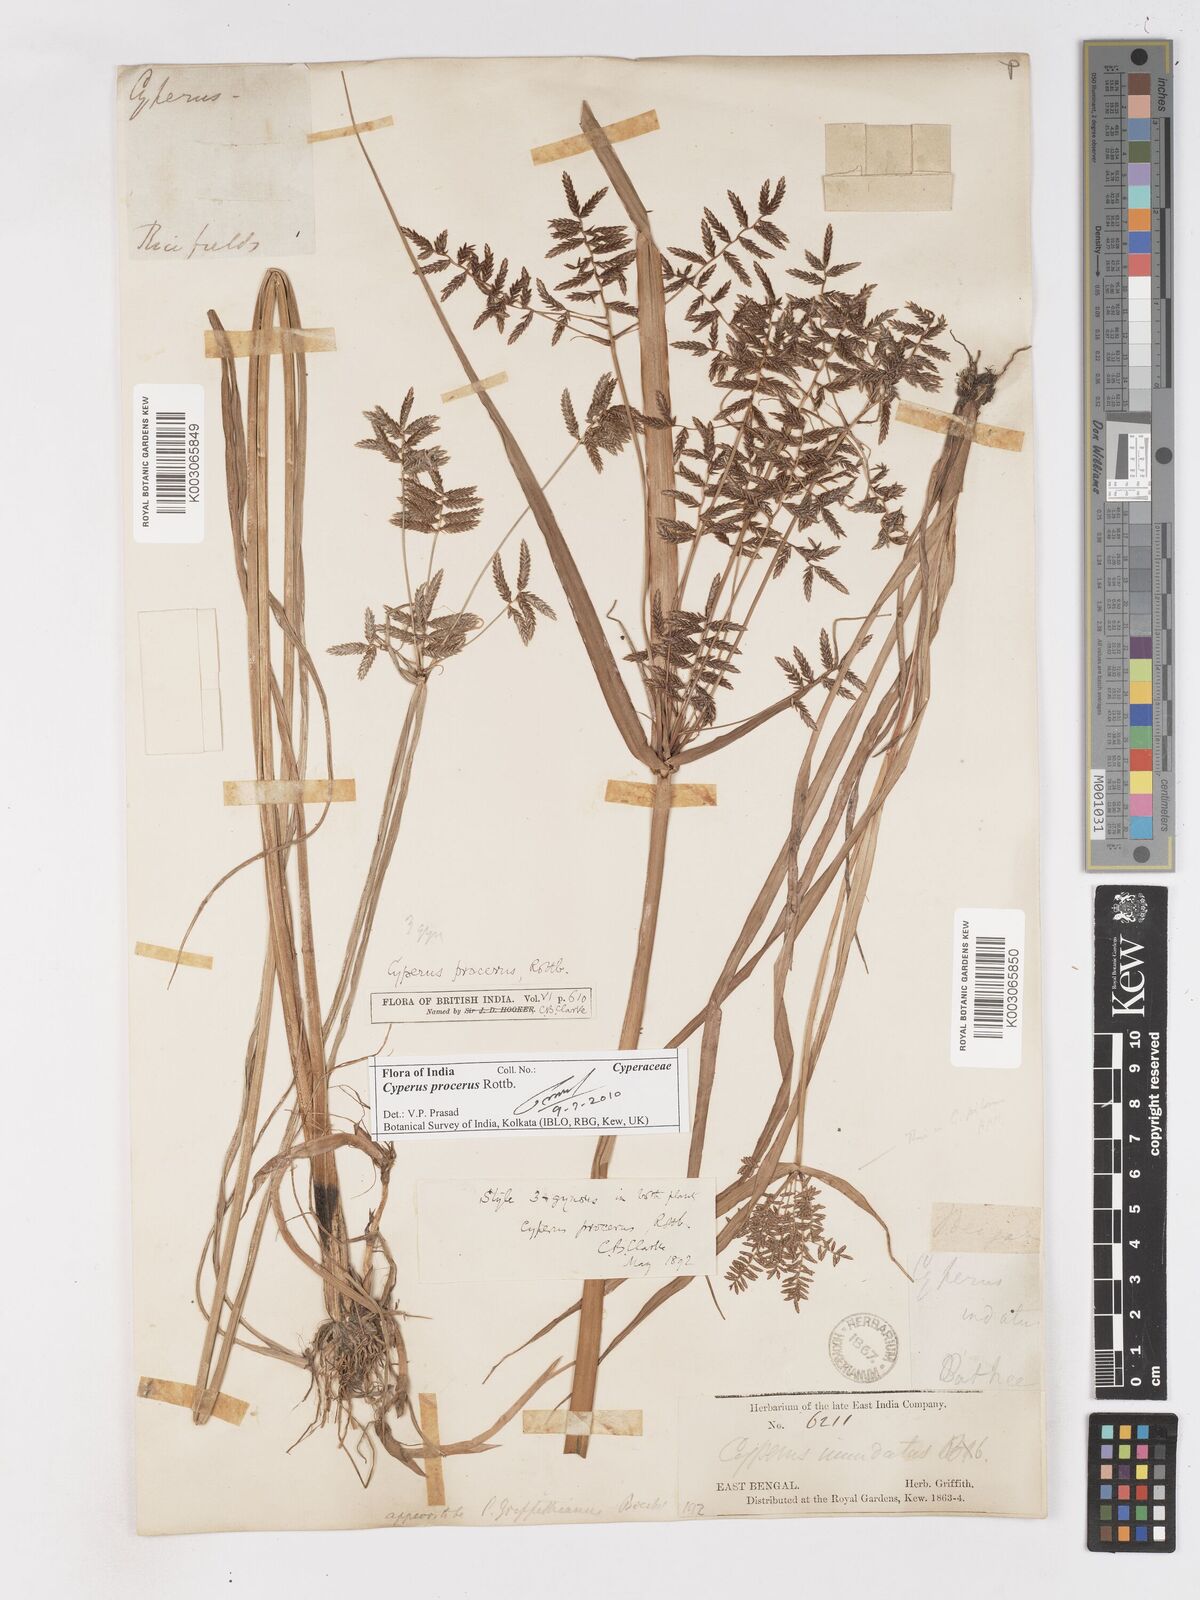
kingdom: Plantae
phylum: Tracheophyta
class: Liliopsida
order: Poales
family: Cyperaceae
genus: Cyperus
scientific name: Cyperus procerus
